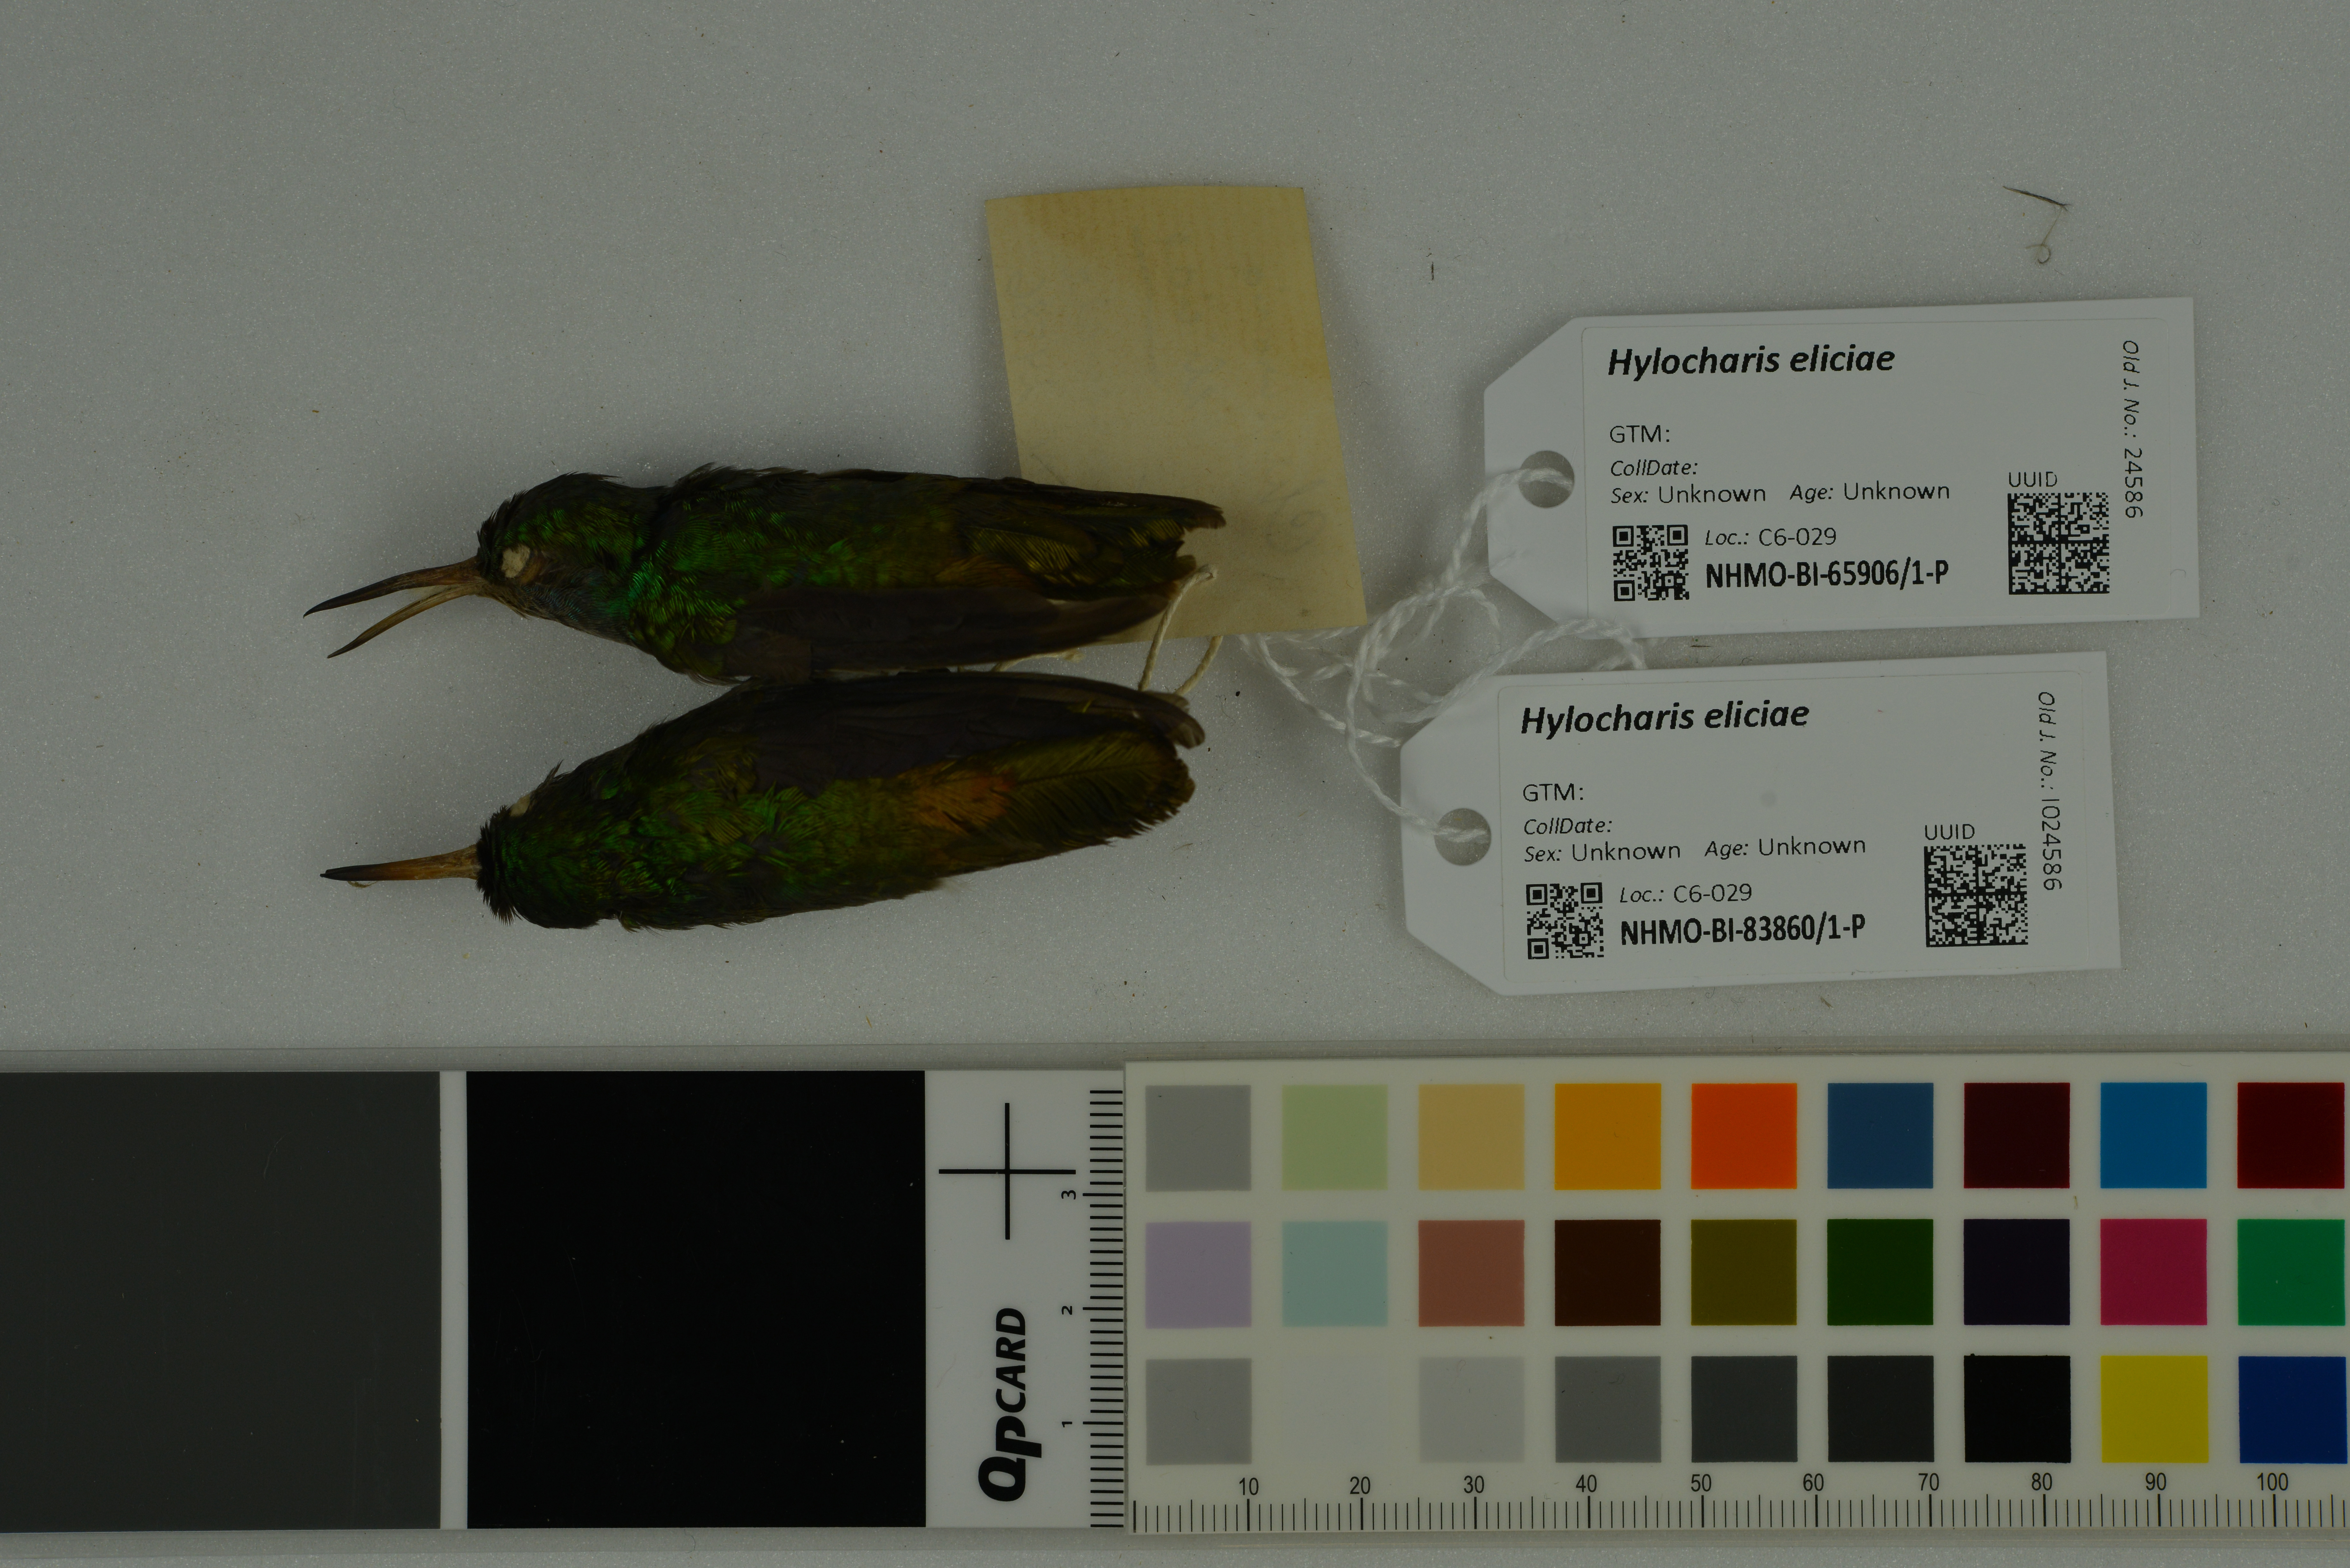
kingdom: Animalia
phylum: Chordata
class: Aves
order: Apodiformes
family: Trochilidae
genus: Chlorestes
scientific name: Chlorestes eliciae
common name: Blue-throated sapphire
